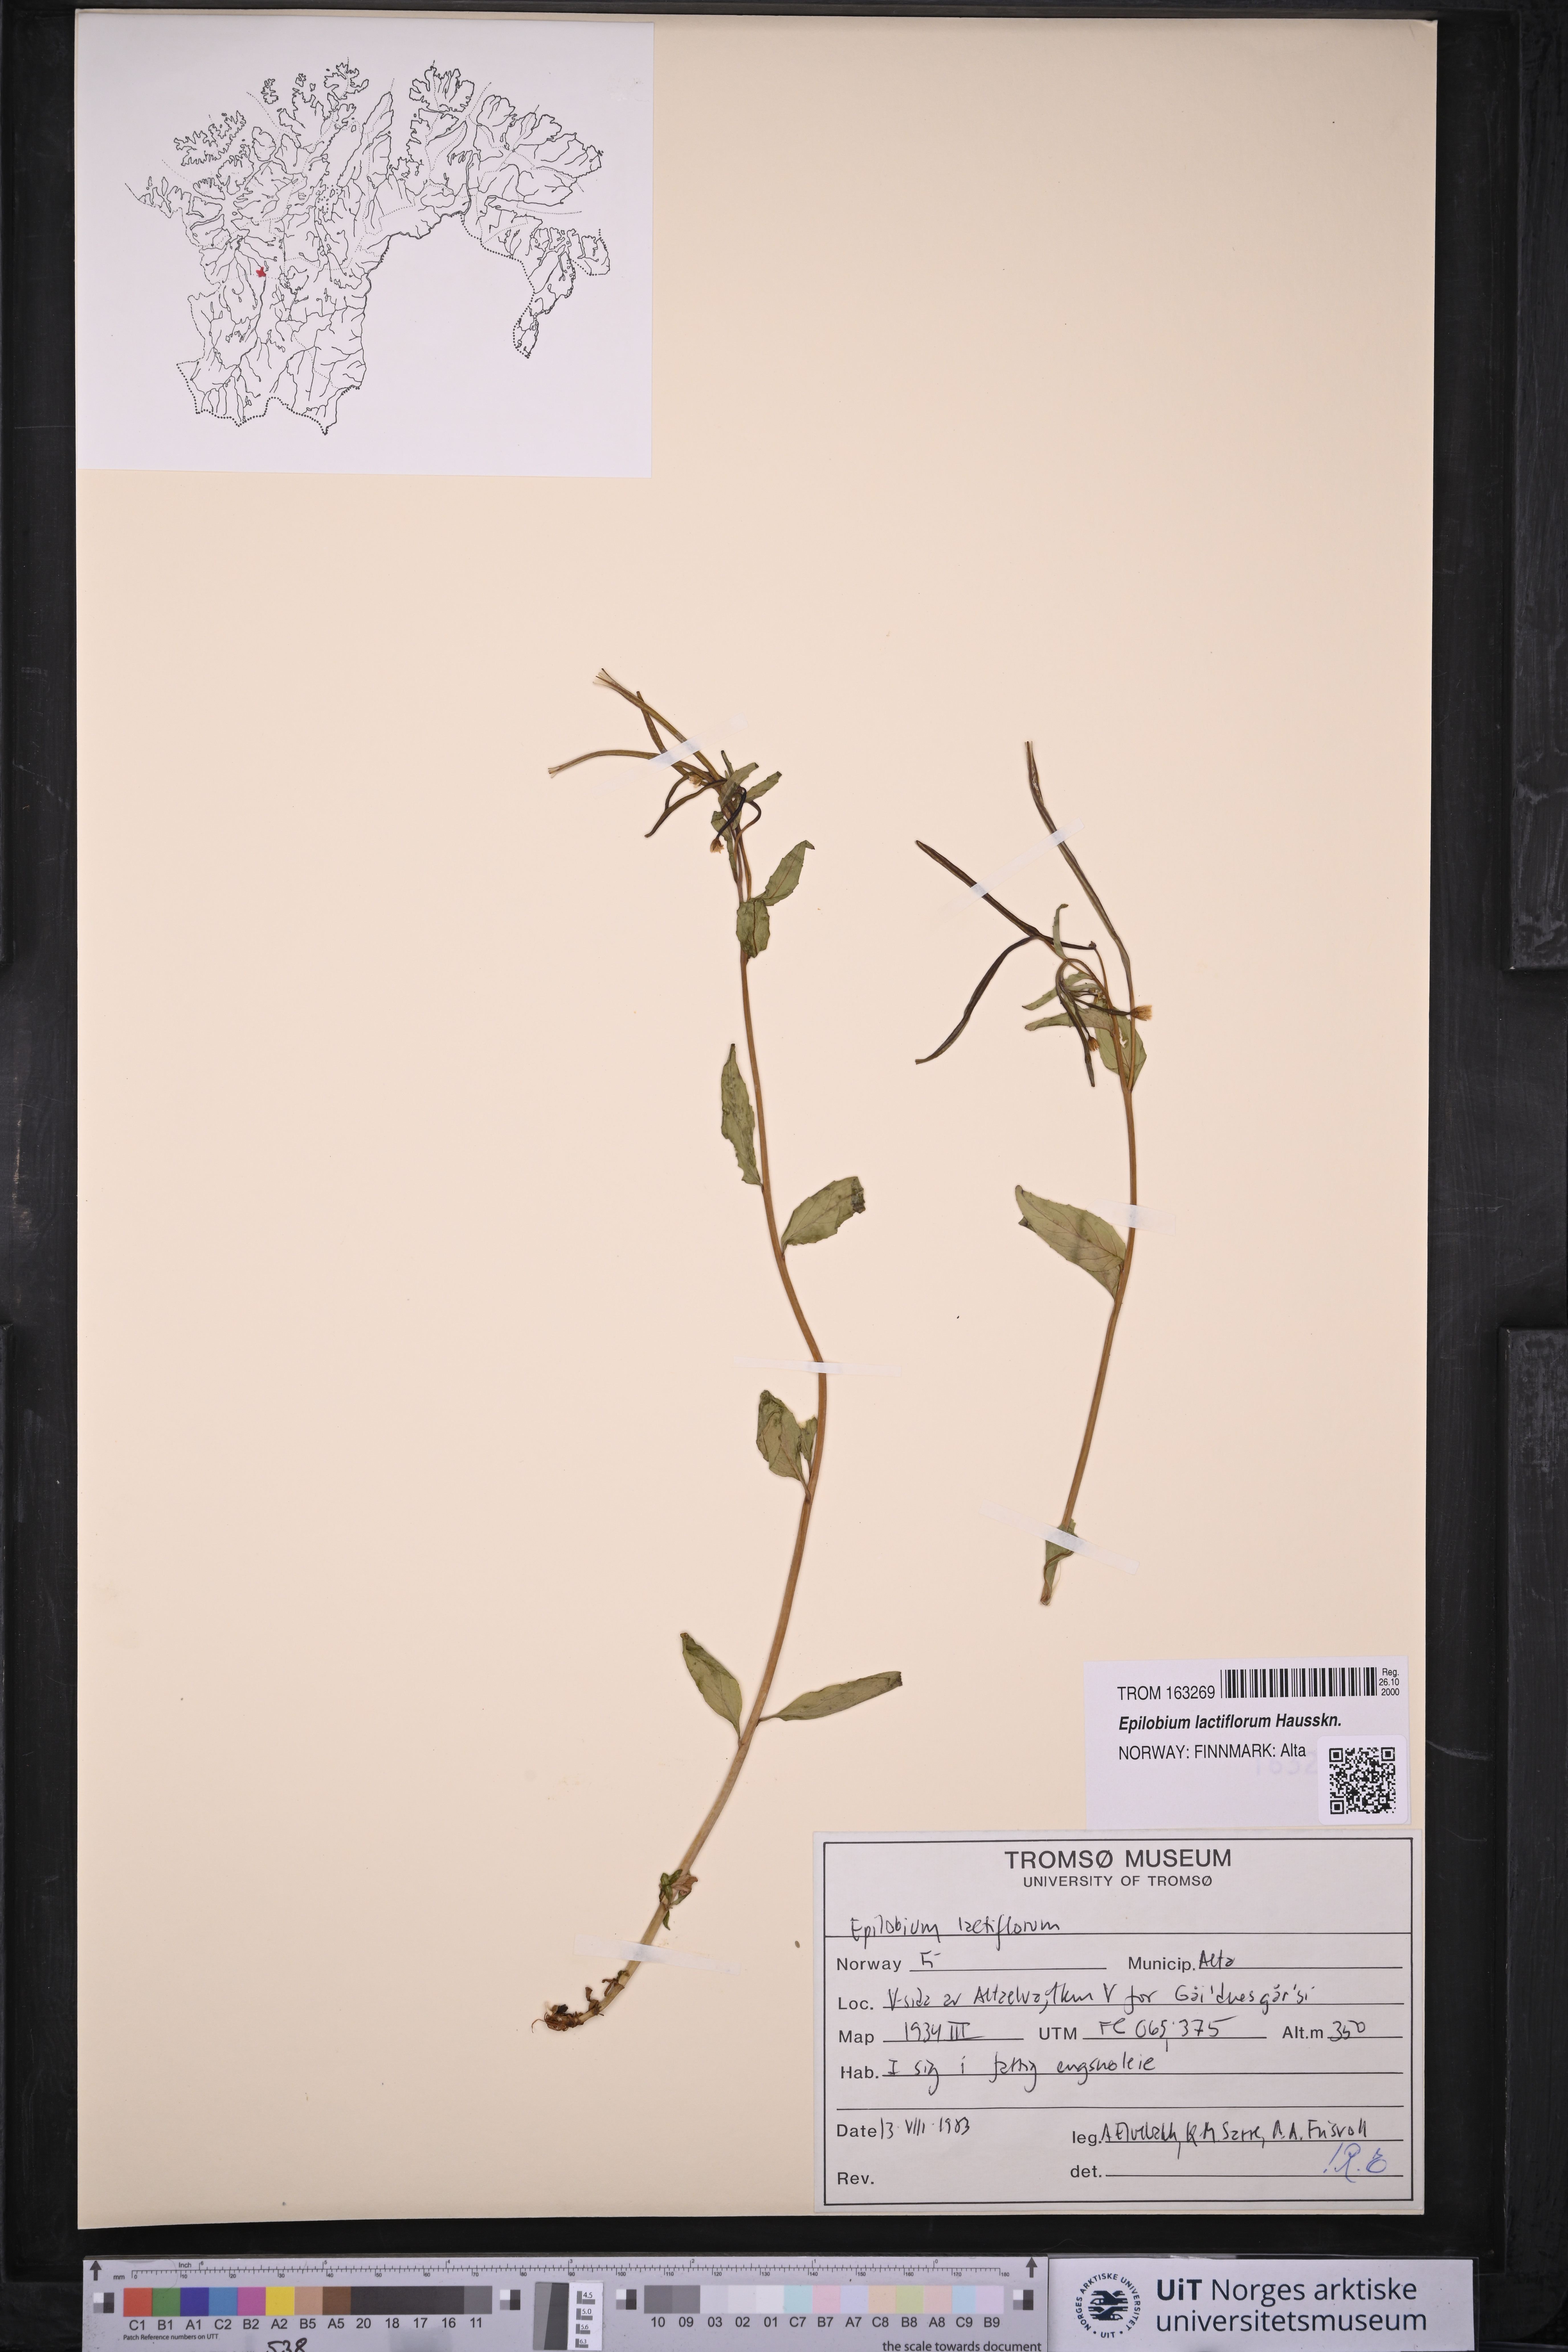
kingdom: Plantae
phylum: Tracheophyta
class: Magnoliopsida
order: Myrtales
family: Onagraceae
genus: Epilobium
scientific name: Epilobium lactiflorum
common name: Milkflower willowherb
